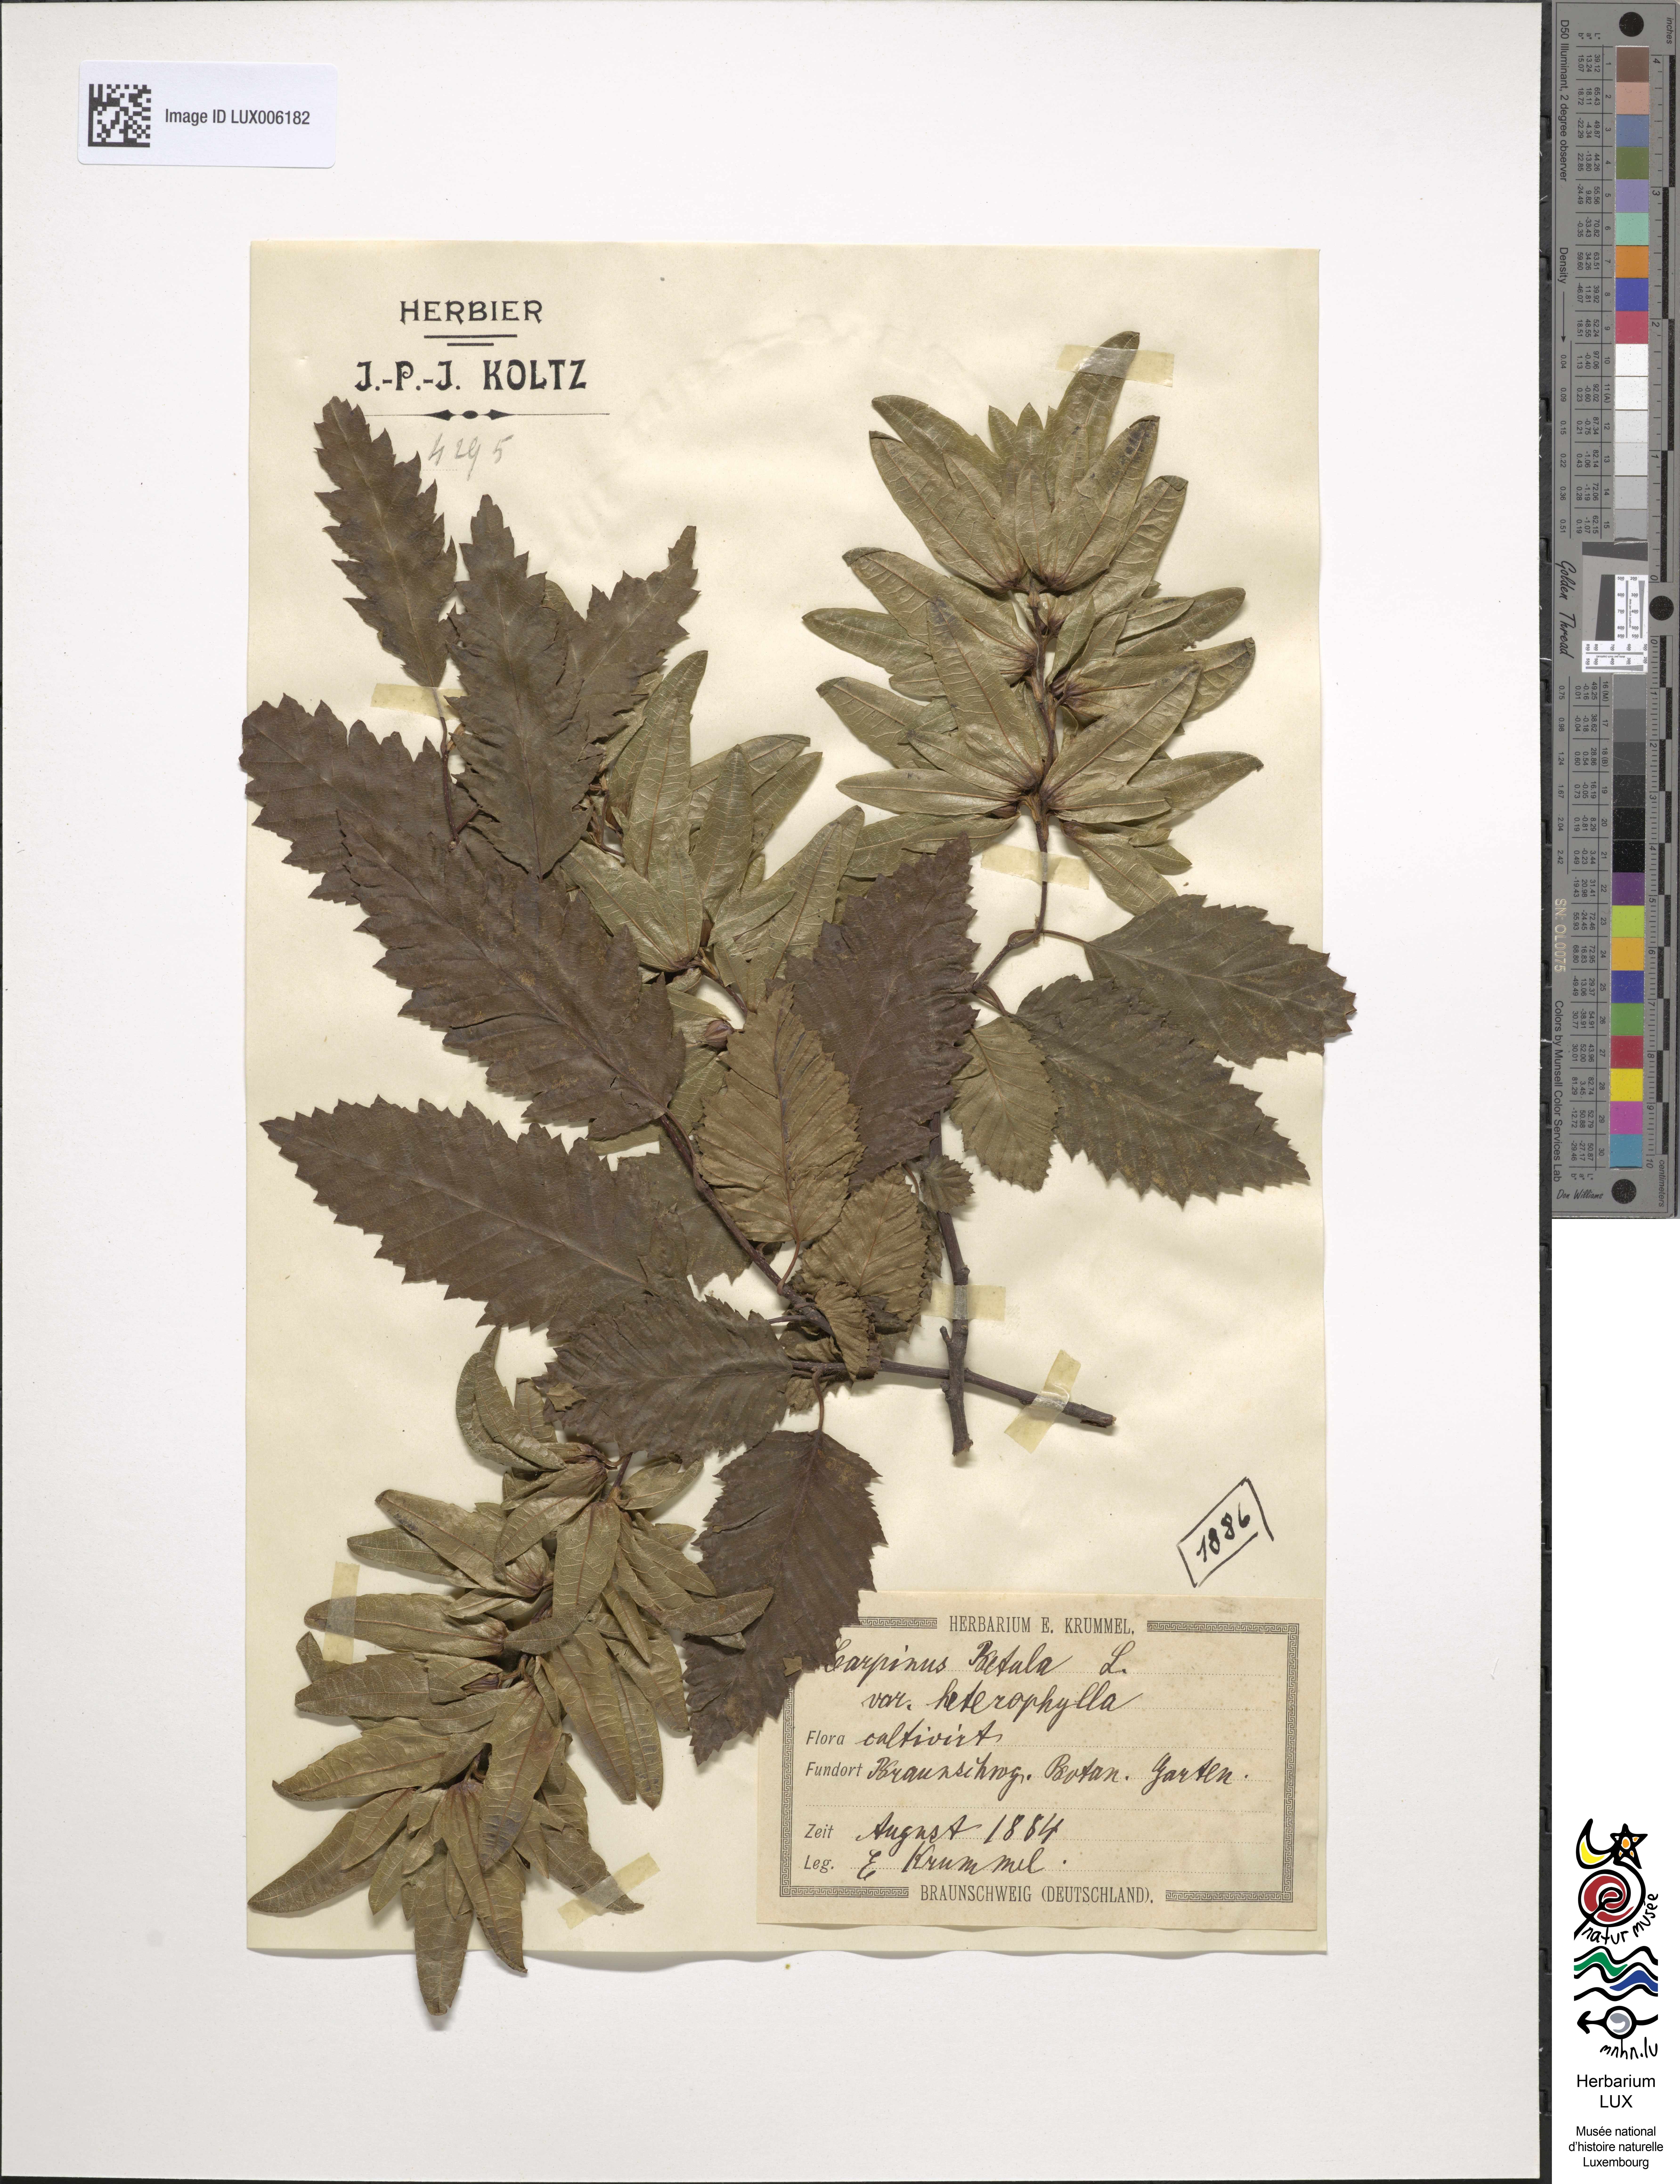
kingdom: Plantae
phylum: Tracheophyta
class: Magnoliopsida
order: Fagales
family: Betulaceae
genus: Carpinus
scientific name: Carpinus betulus
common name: Hornbeam
